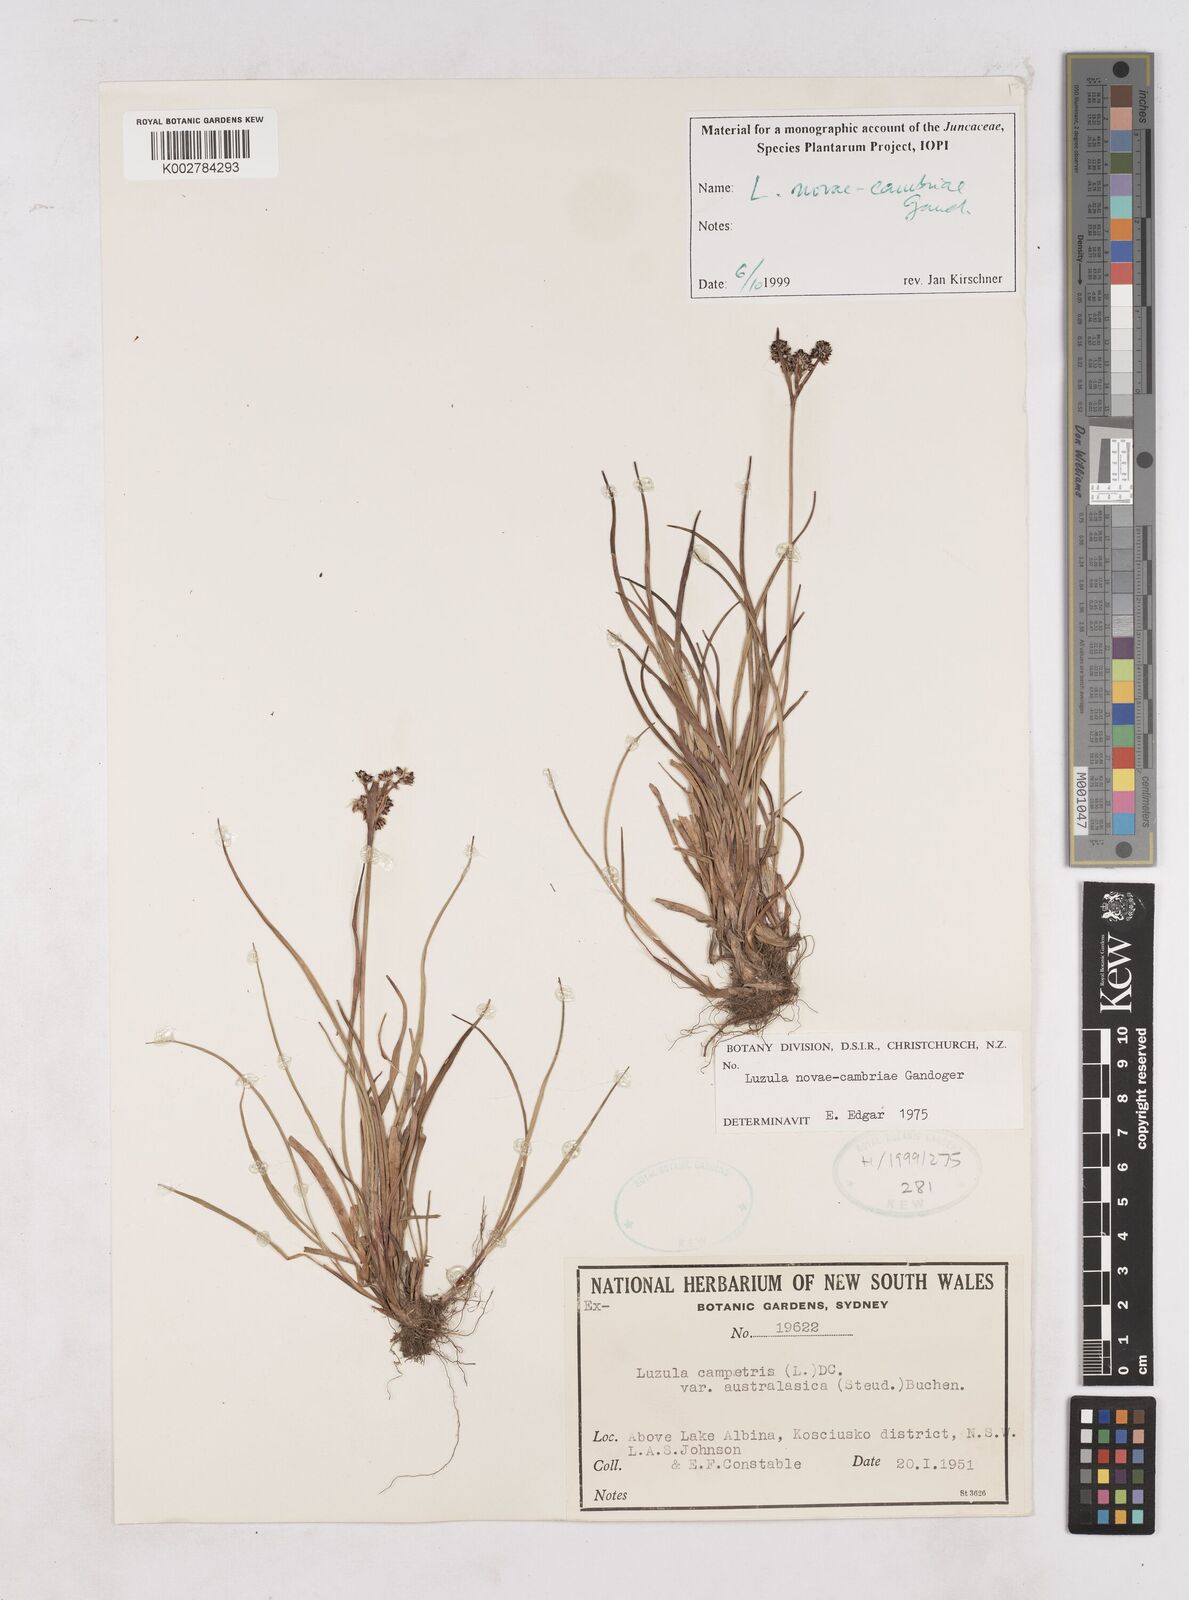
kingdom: Plantae
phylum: Tracheophyta
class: Liliopsida
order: Poales
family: Juncaceae
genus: Luzula
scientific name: Luzula novae-cambriae
